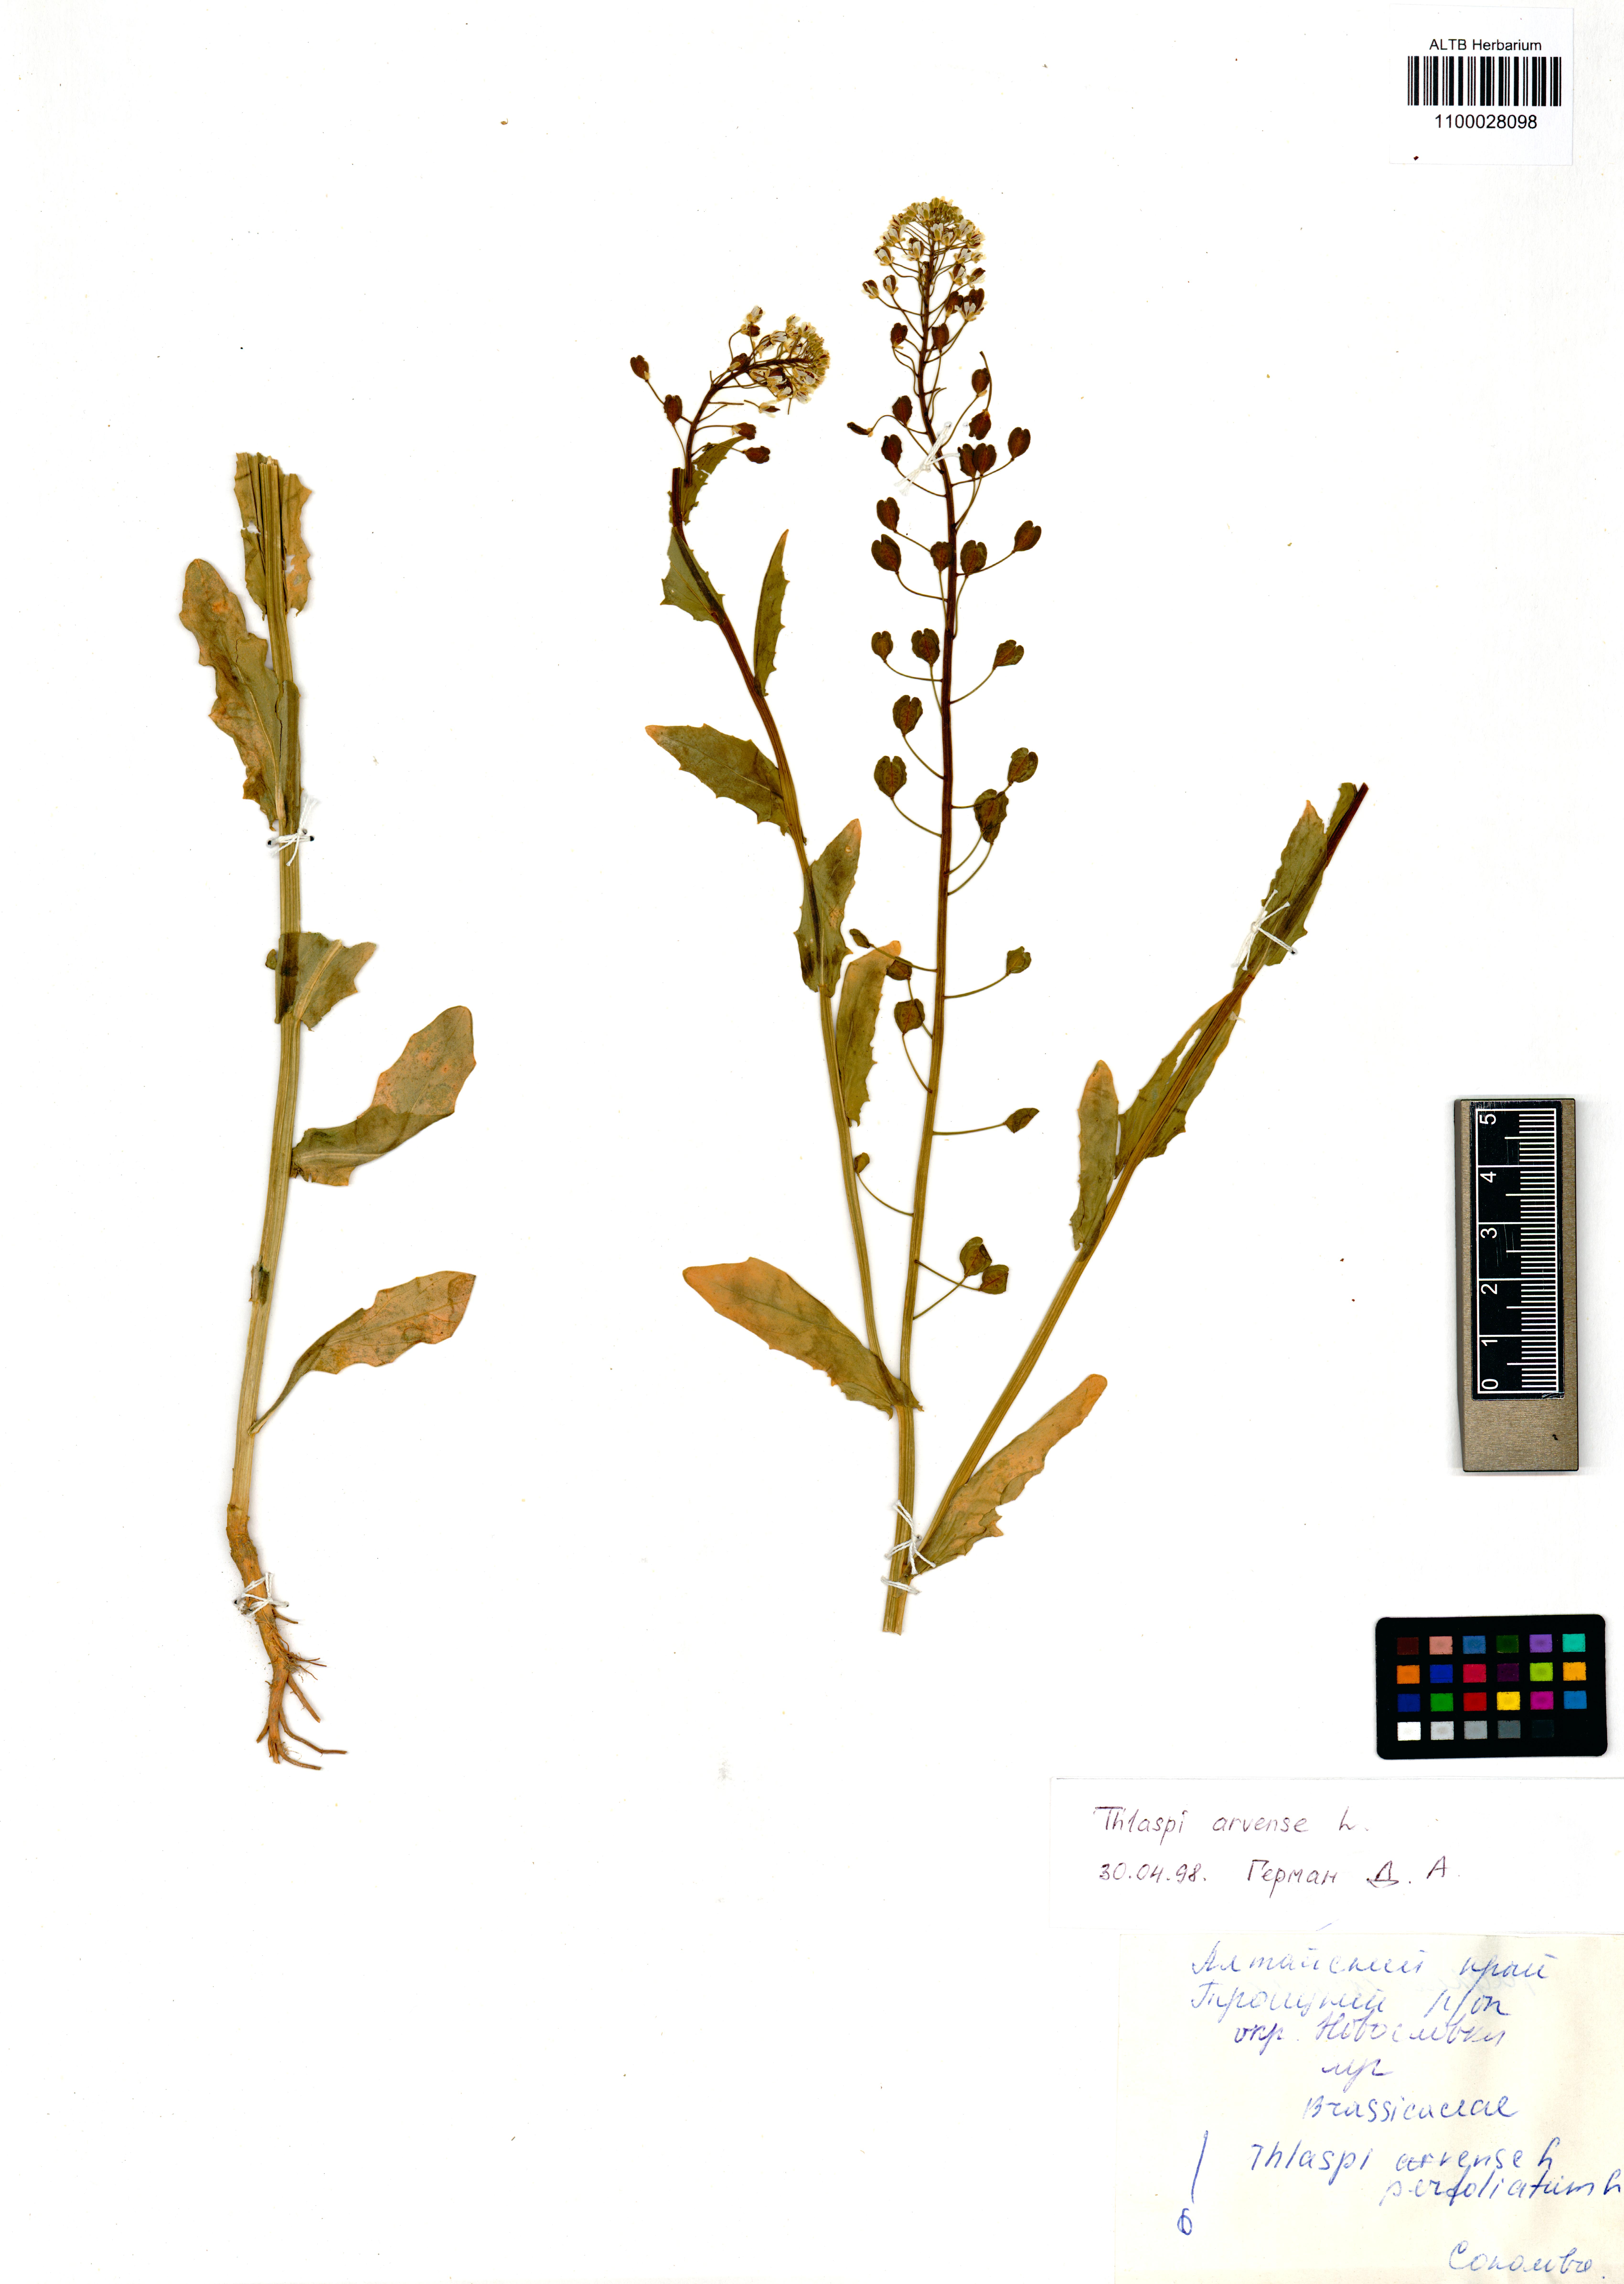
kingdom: Plantae
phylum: Tracheophyta
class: Magnoliopsida
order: Brassicales
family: Brassicaceae
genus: Thlaspi
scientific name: Thlaspi arvense
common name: Field pennycress
